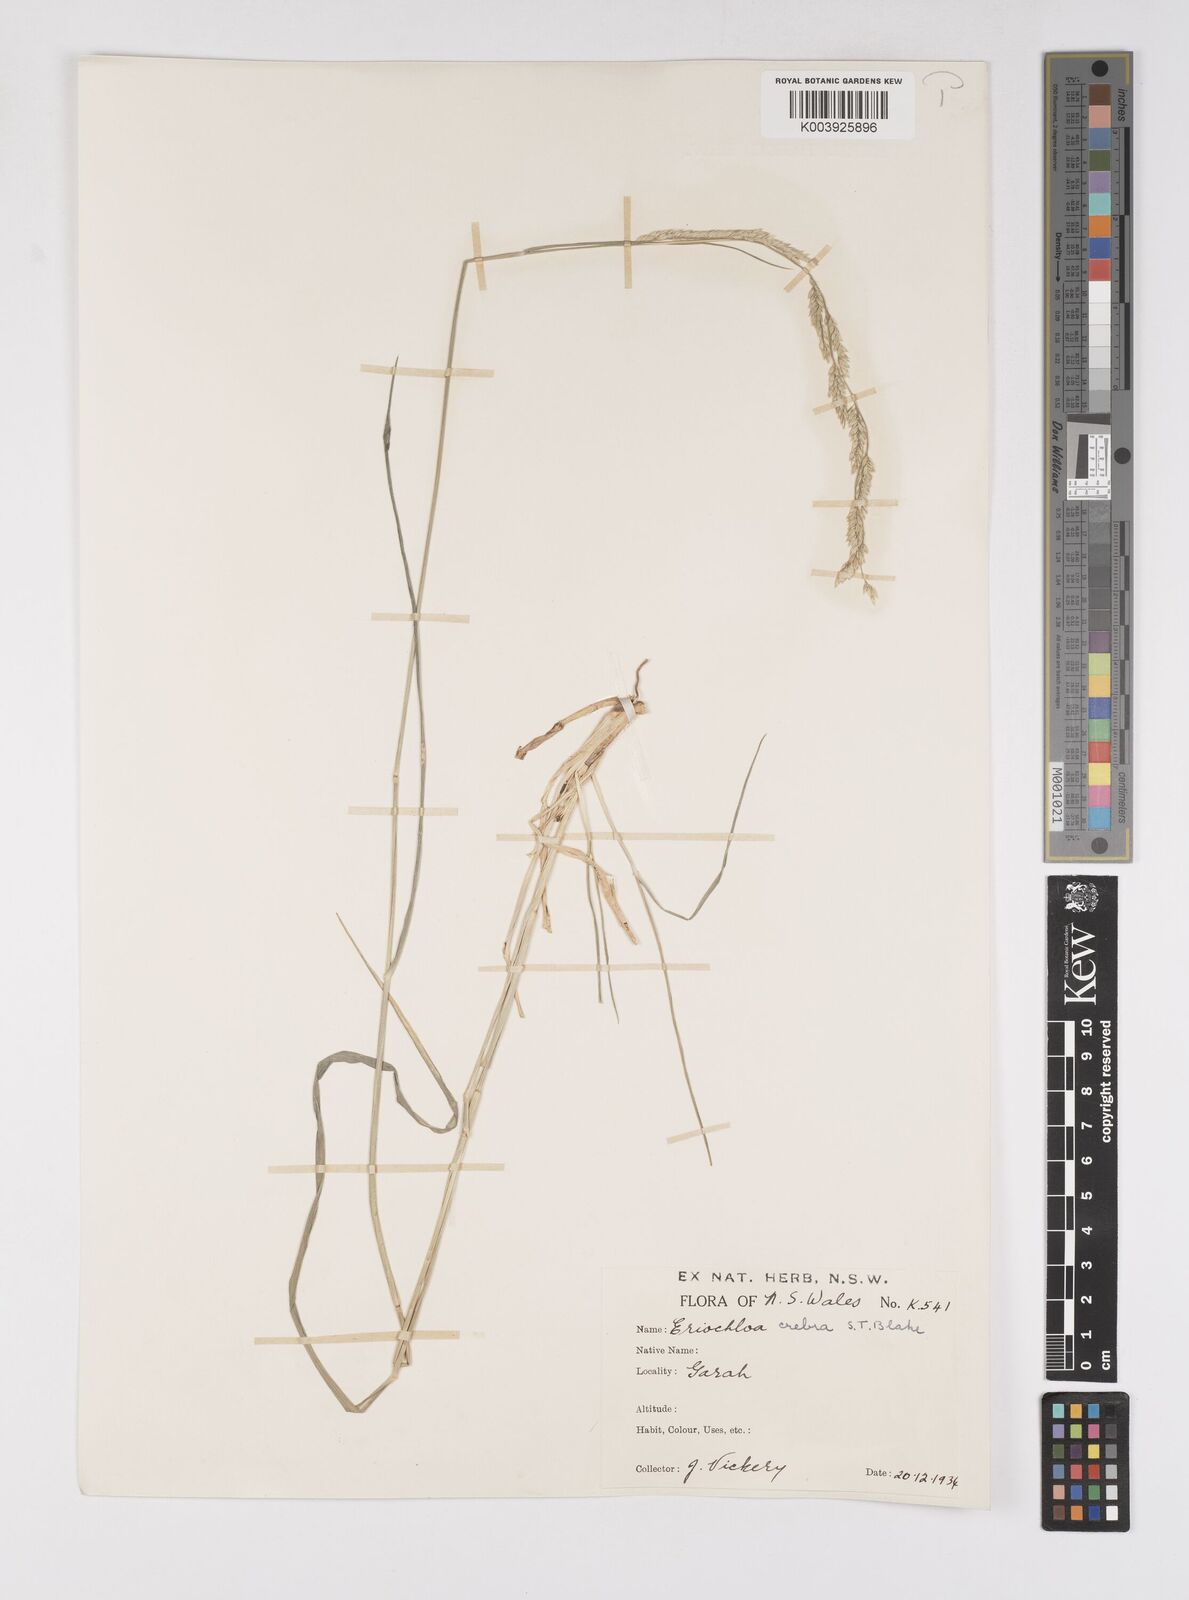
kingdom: Plantae
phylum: Tracheophyta
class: Liliopsida
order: Poales
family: Poaceae
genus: Eriochloa
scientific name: Eriochloa crebra
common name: Cup grass
